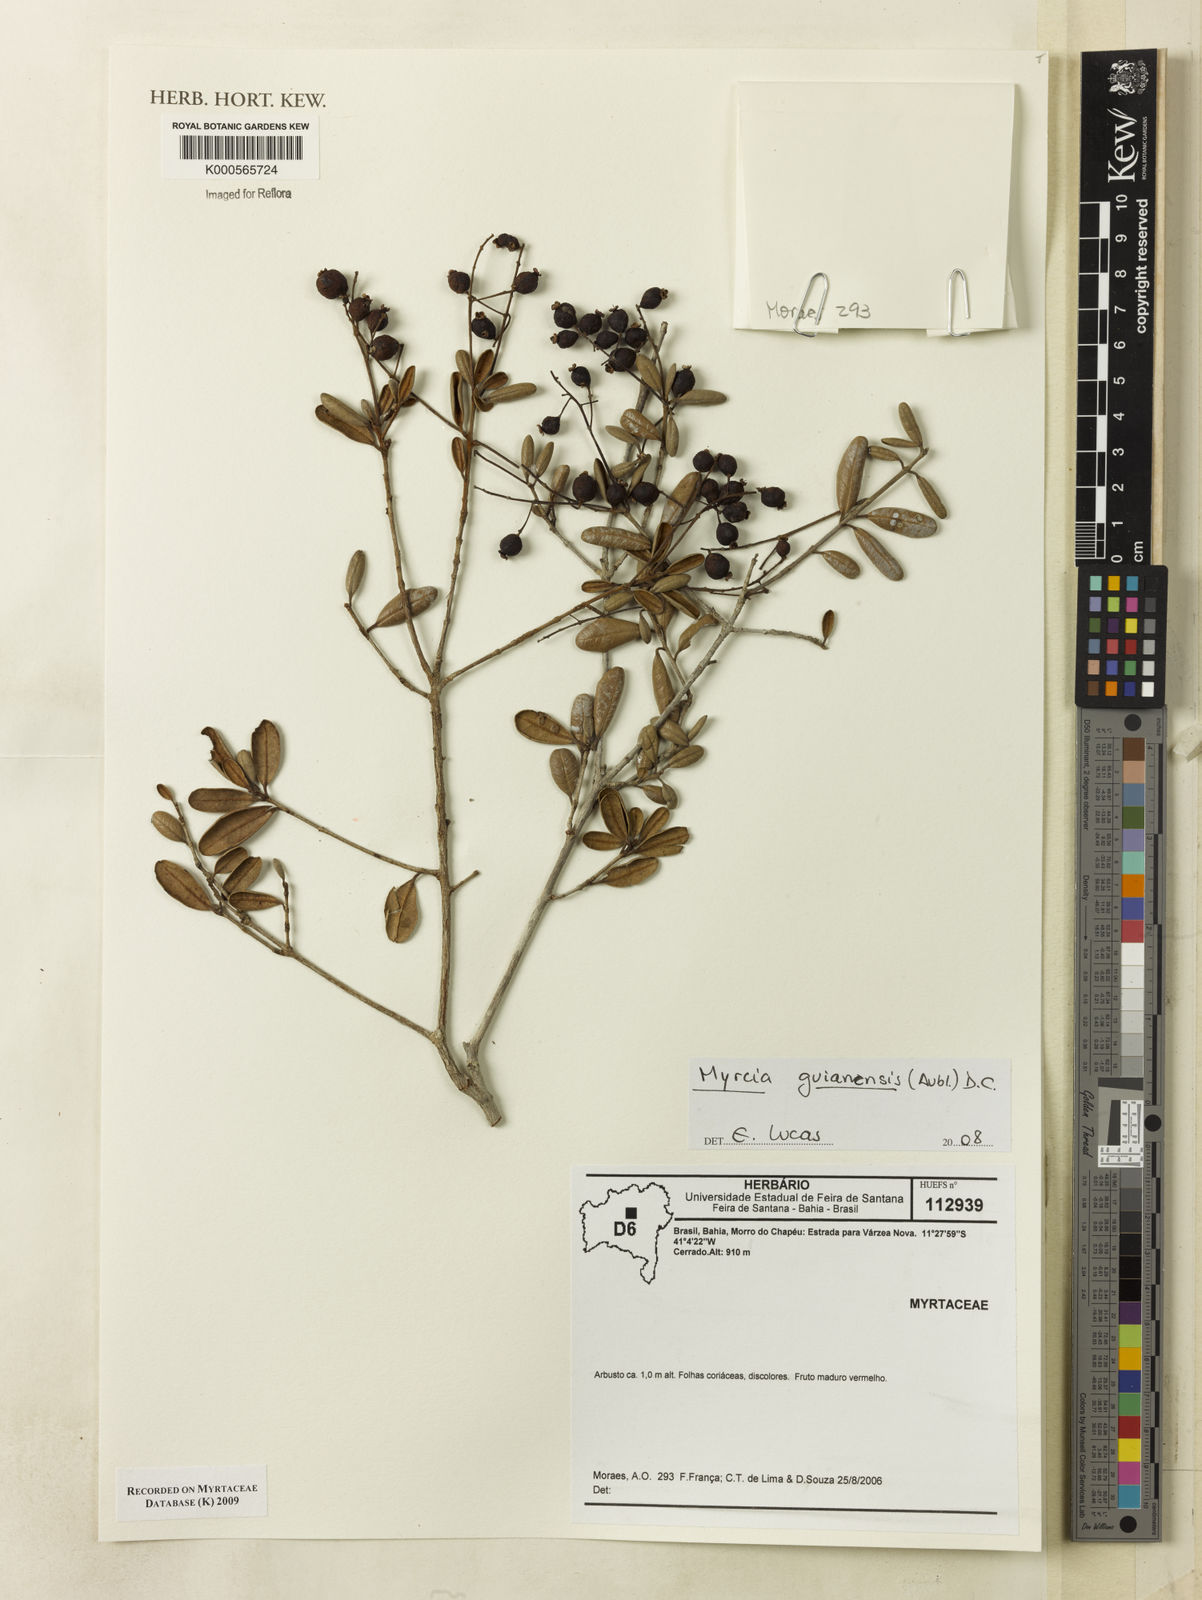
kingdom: Plantae
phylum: Tracheophyta
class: Magnoliopsida
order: Myrtales
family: Myrtaceae
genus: Myrcia
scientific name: Myrcia guianensis
